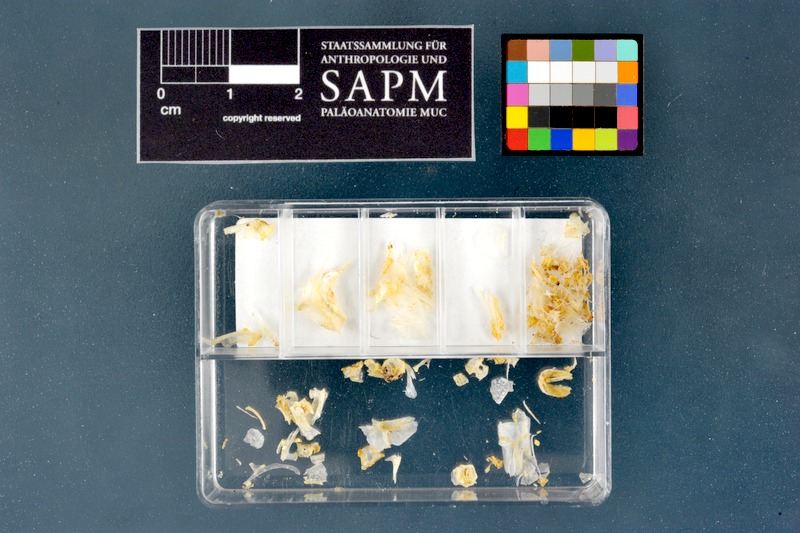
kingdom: Animalia
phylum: Chordata
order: Characiformes
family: Alestidae
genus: Micralestes
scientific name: Micralestes acutidens
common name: Silver robber
